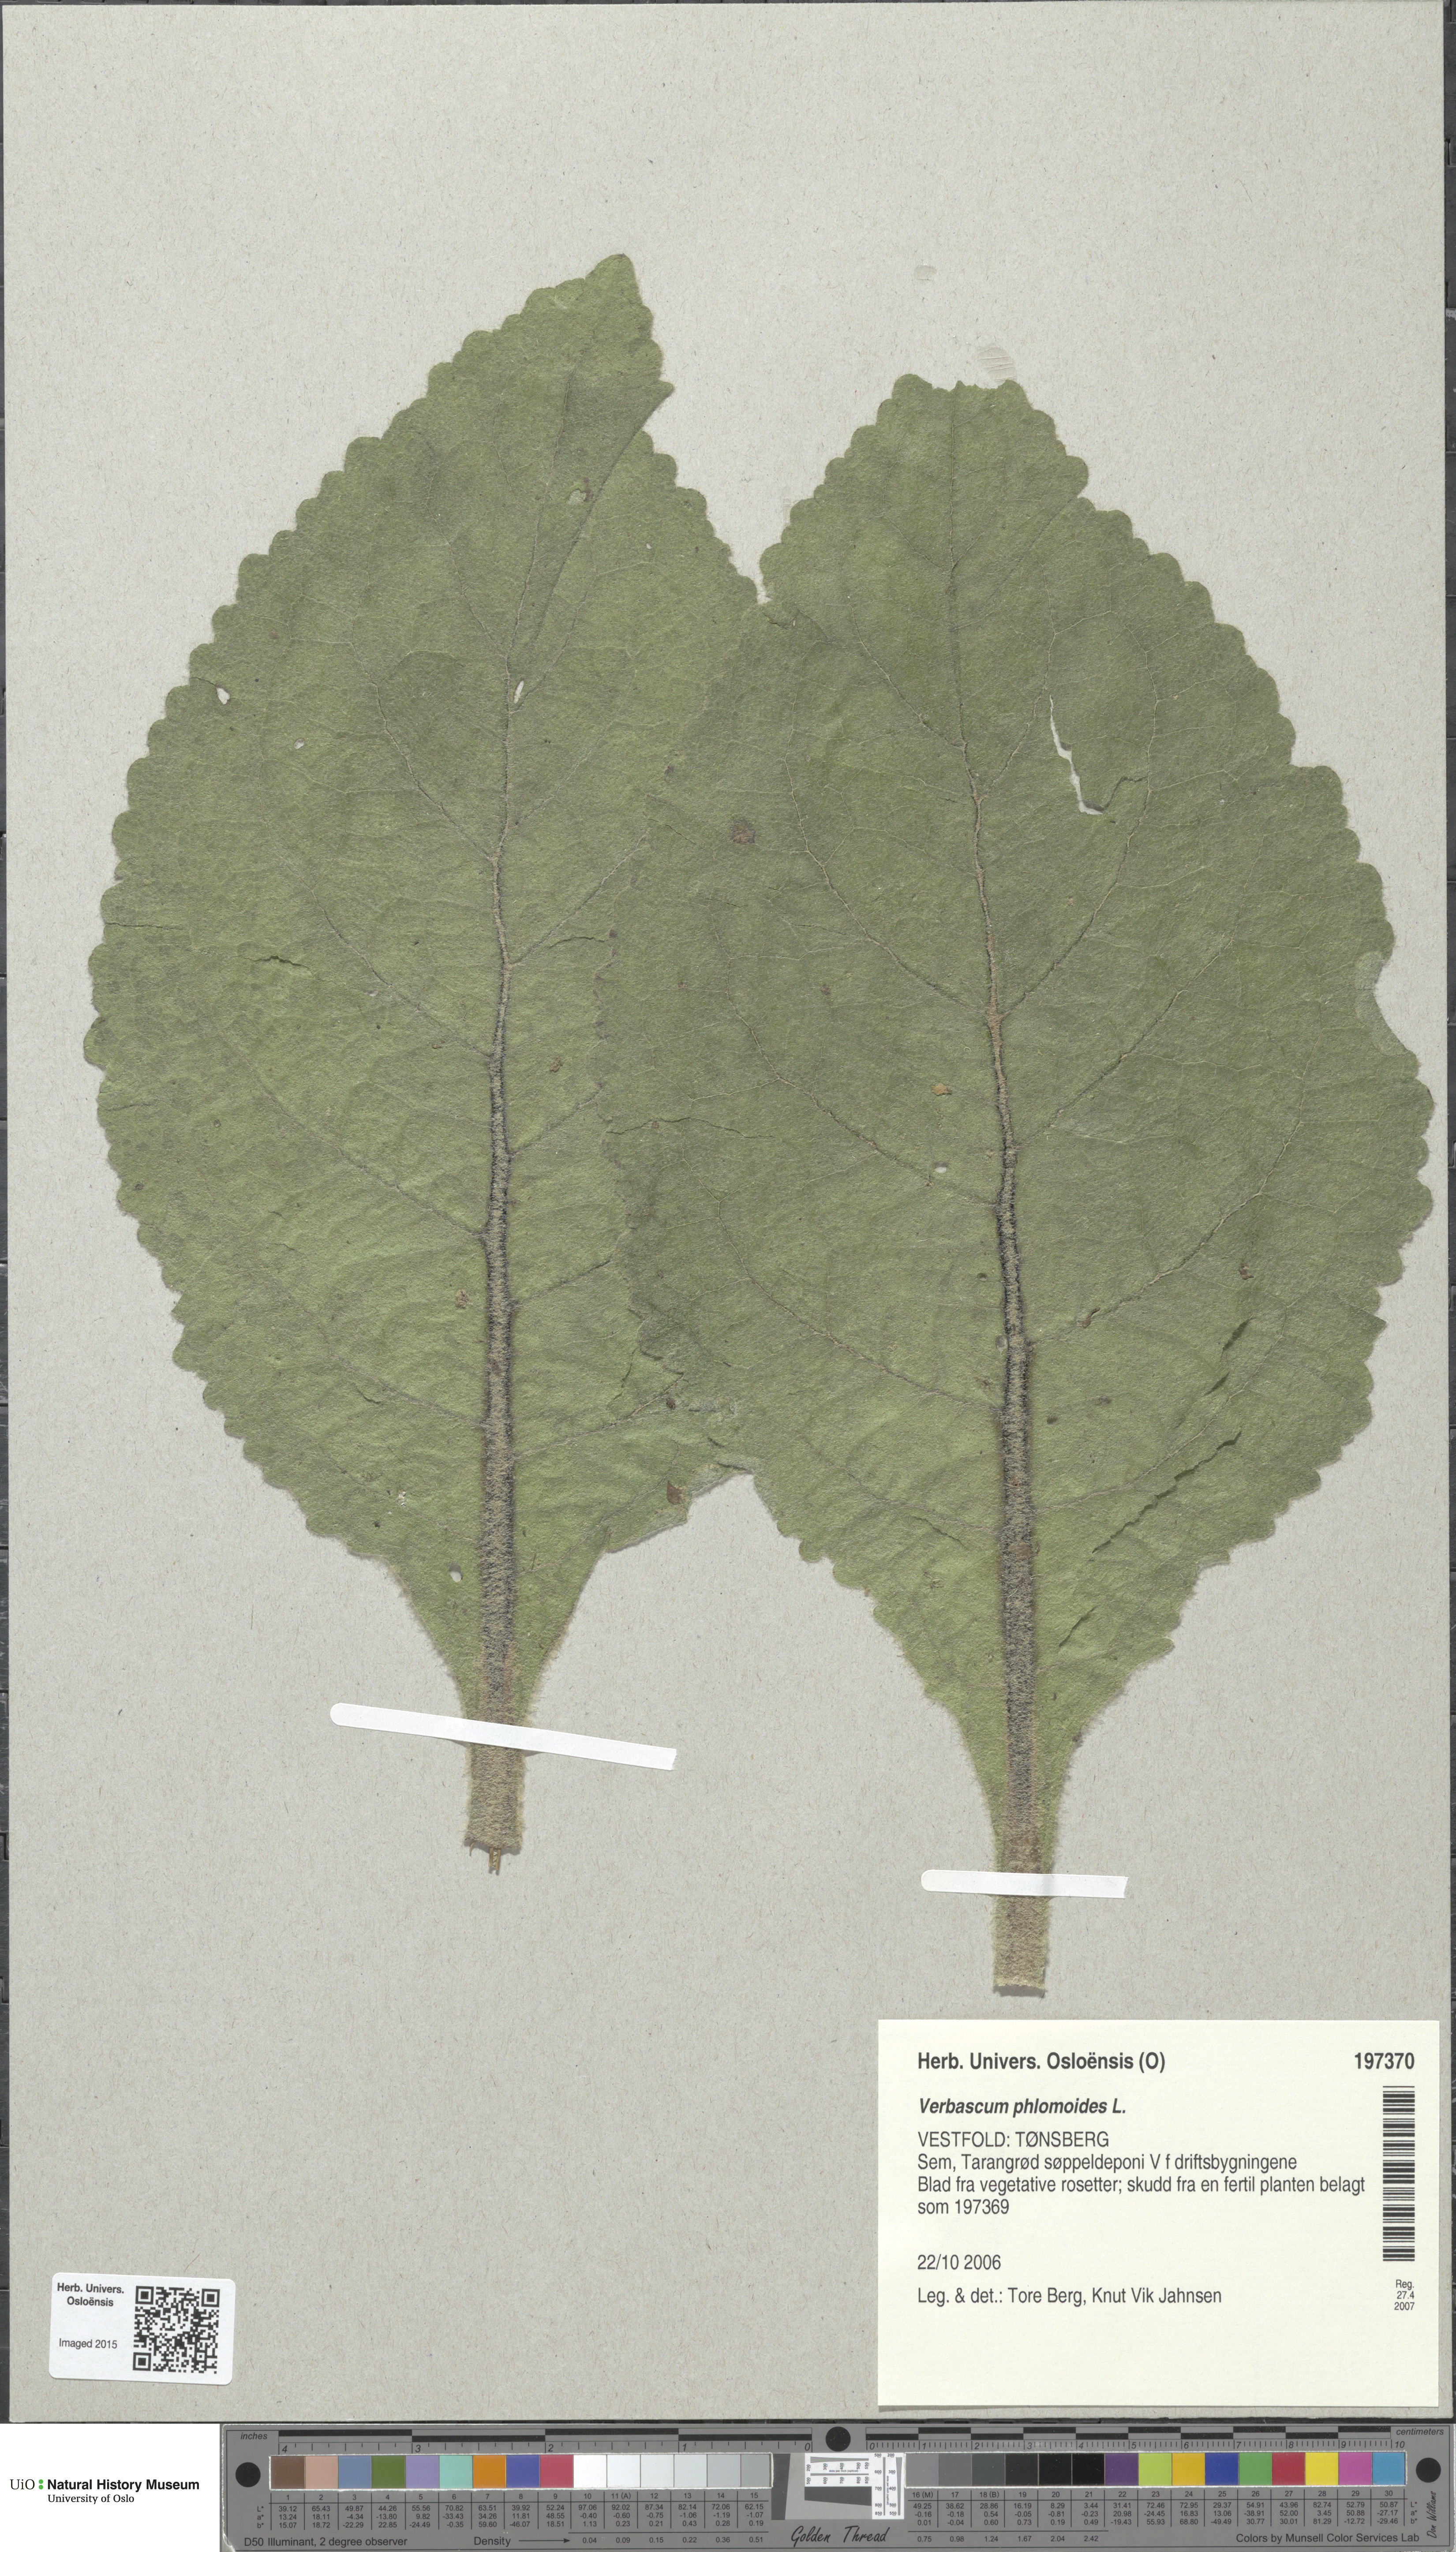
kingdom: Plantae
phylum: Tracheophyta
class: Magnoliopsida
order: Lamiales
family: Scrophulariaceae
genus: Verbascum
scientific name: Verbascum phlomoides
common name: Orange mullein
